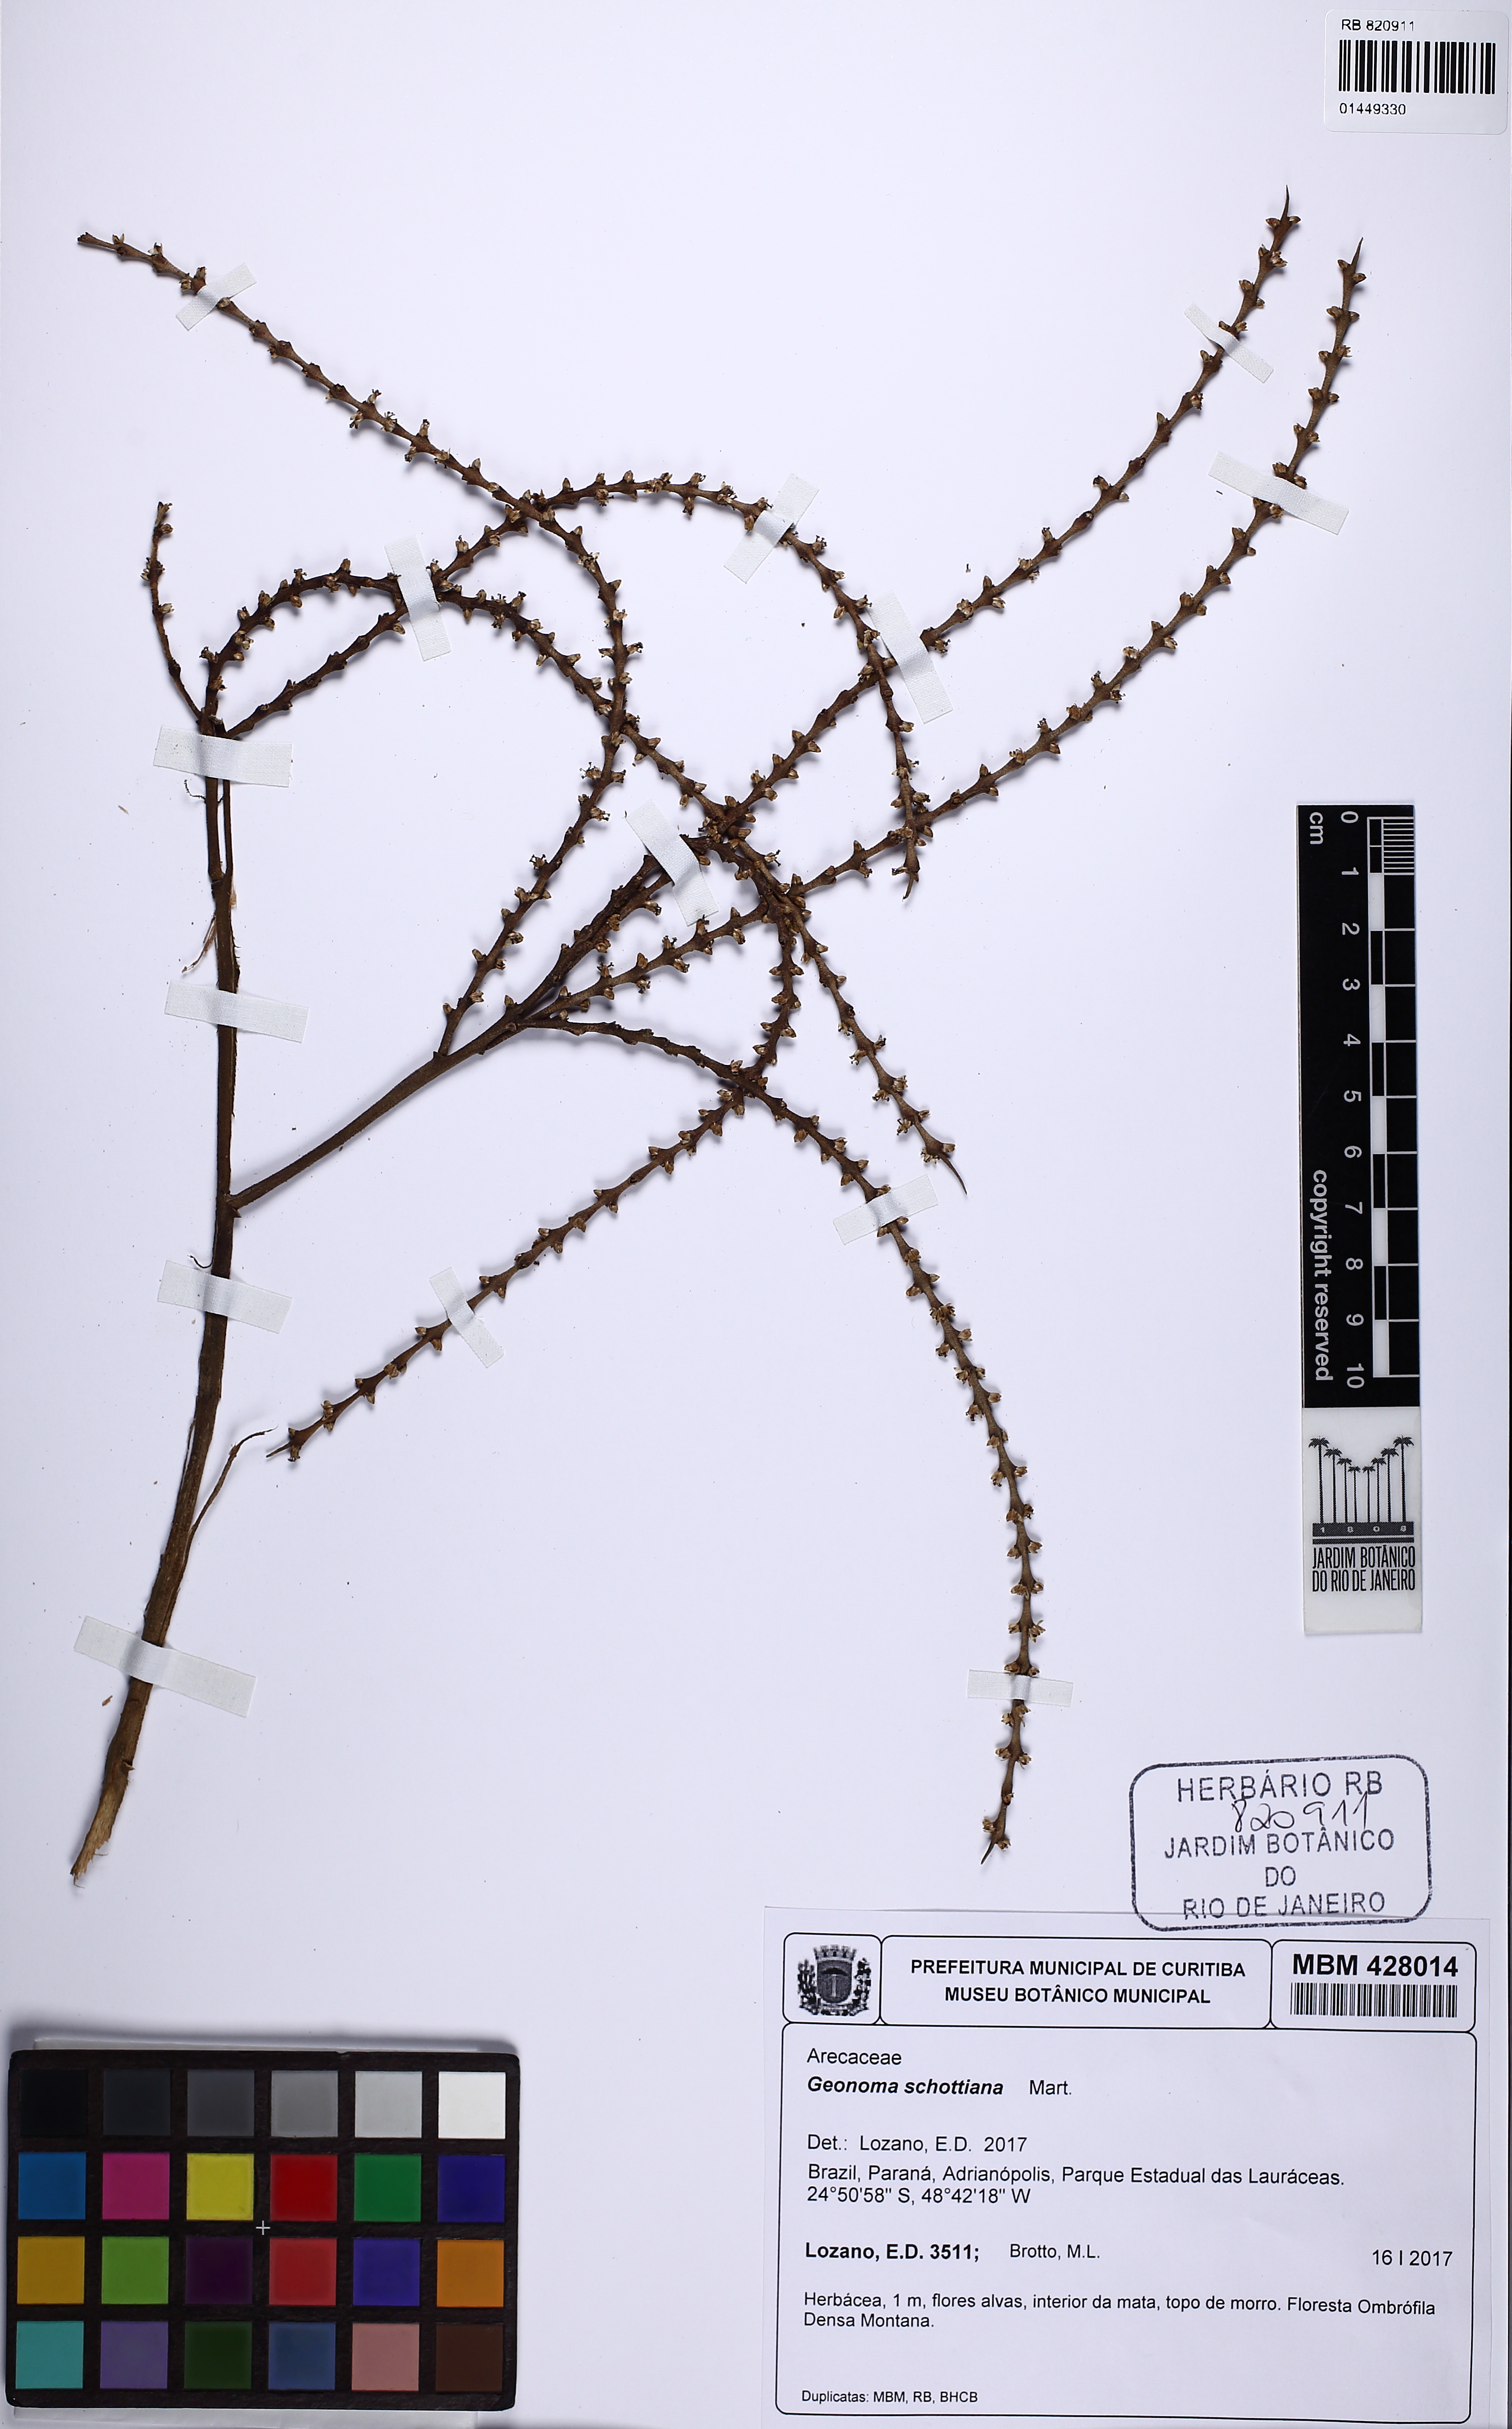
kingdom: Plantae
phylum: Tracheophyta
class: Liliopsida
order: Arecales
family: Arecaceae
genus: Geonoma
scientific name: Geonoma schottiana
